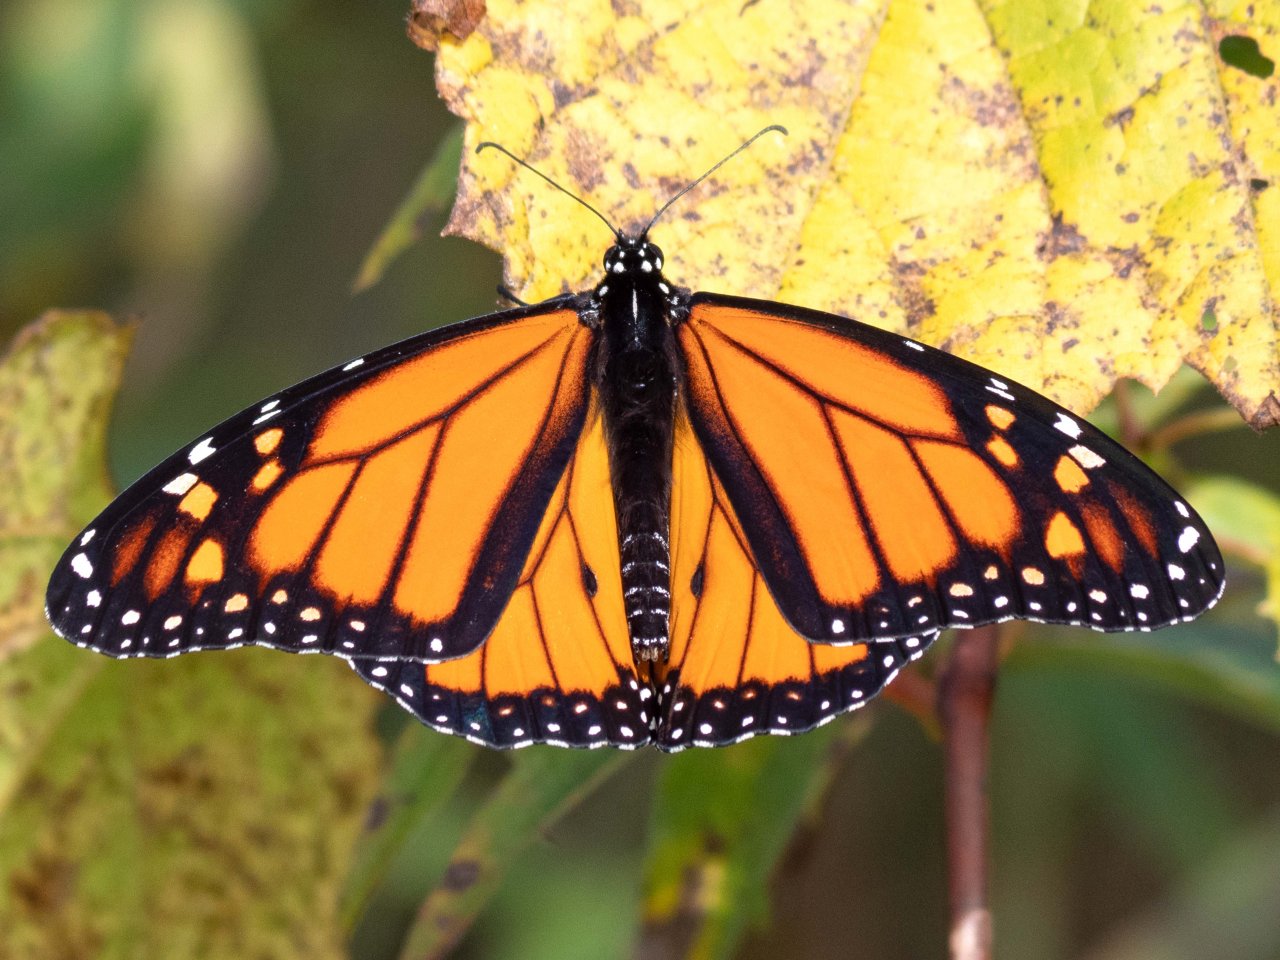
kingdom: Animalia
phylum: Arthropoda
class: Insecta
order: Lepidoptera
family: Nymphalidae
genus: Danaus
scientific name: Danaus plexippus
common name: Monarch
